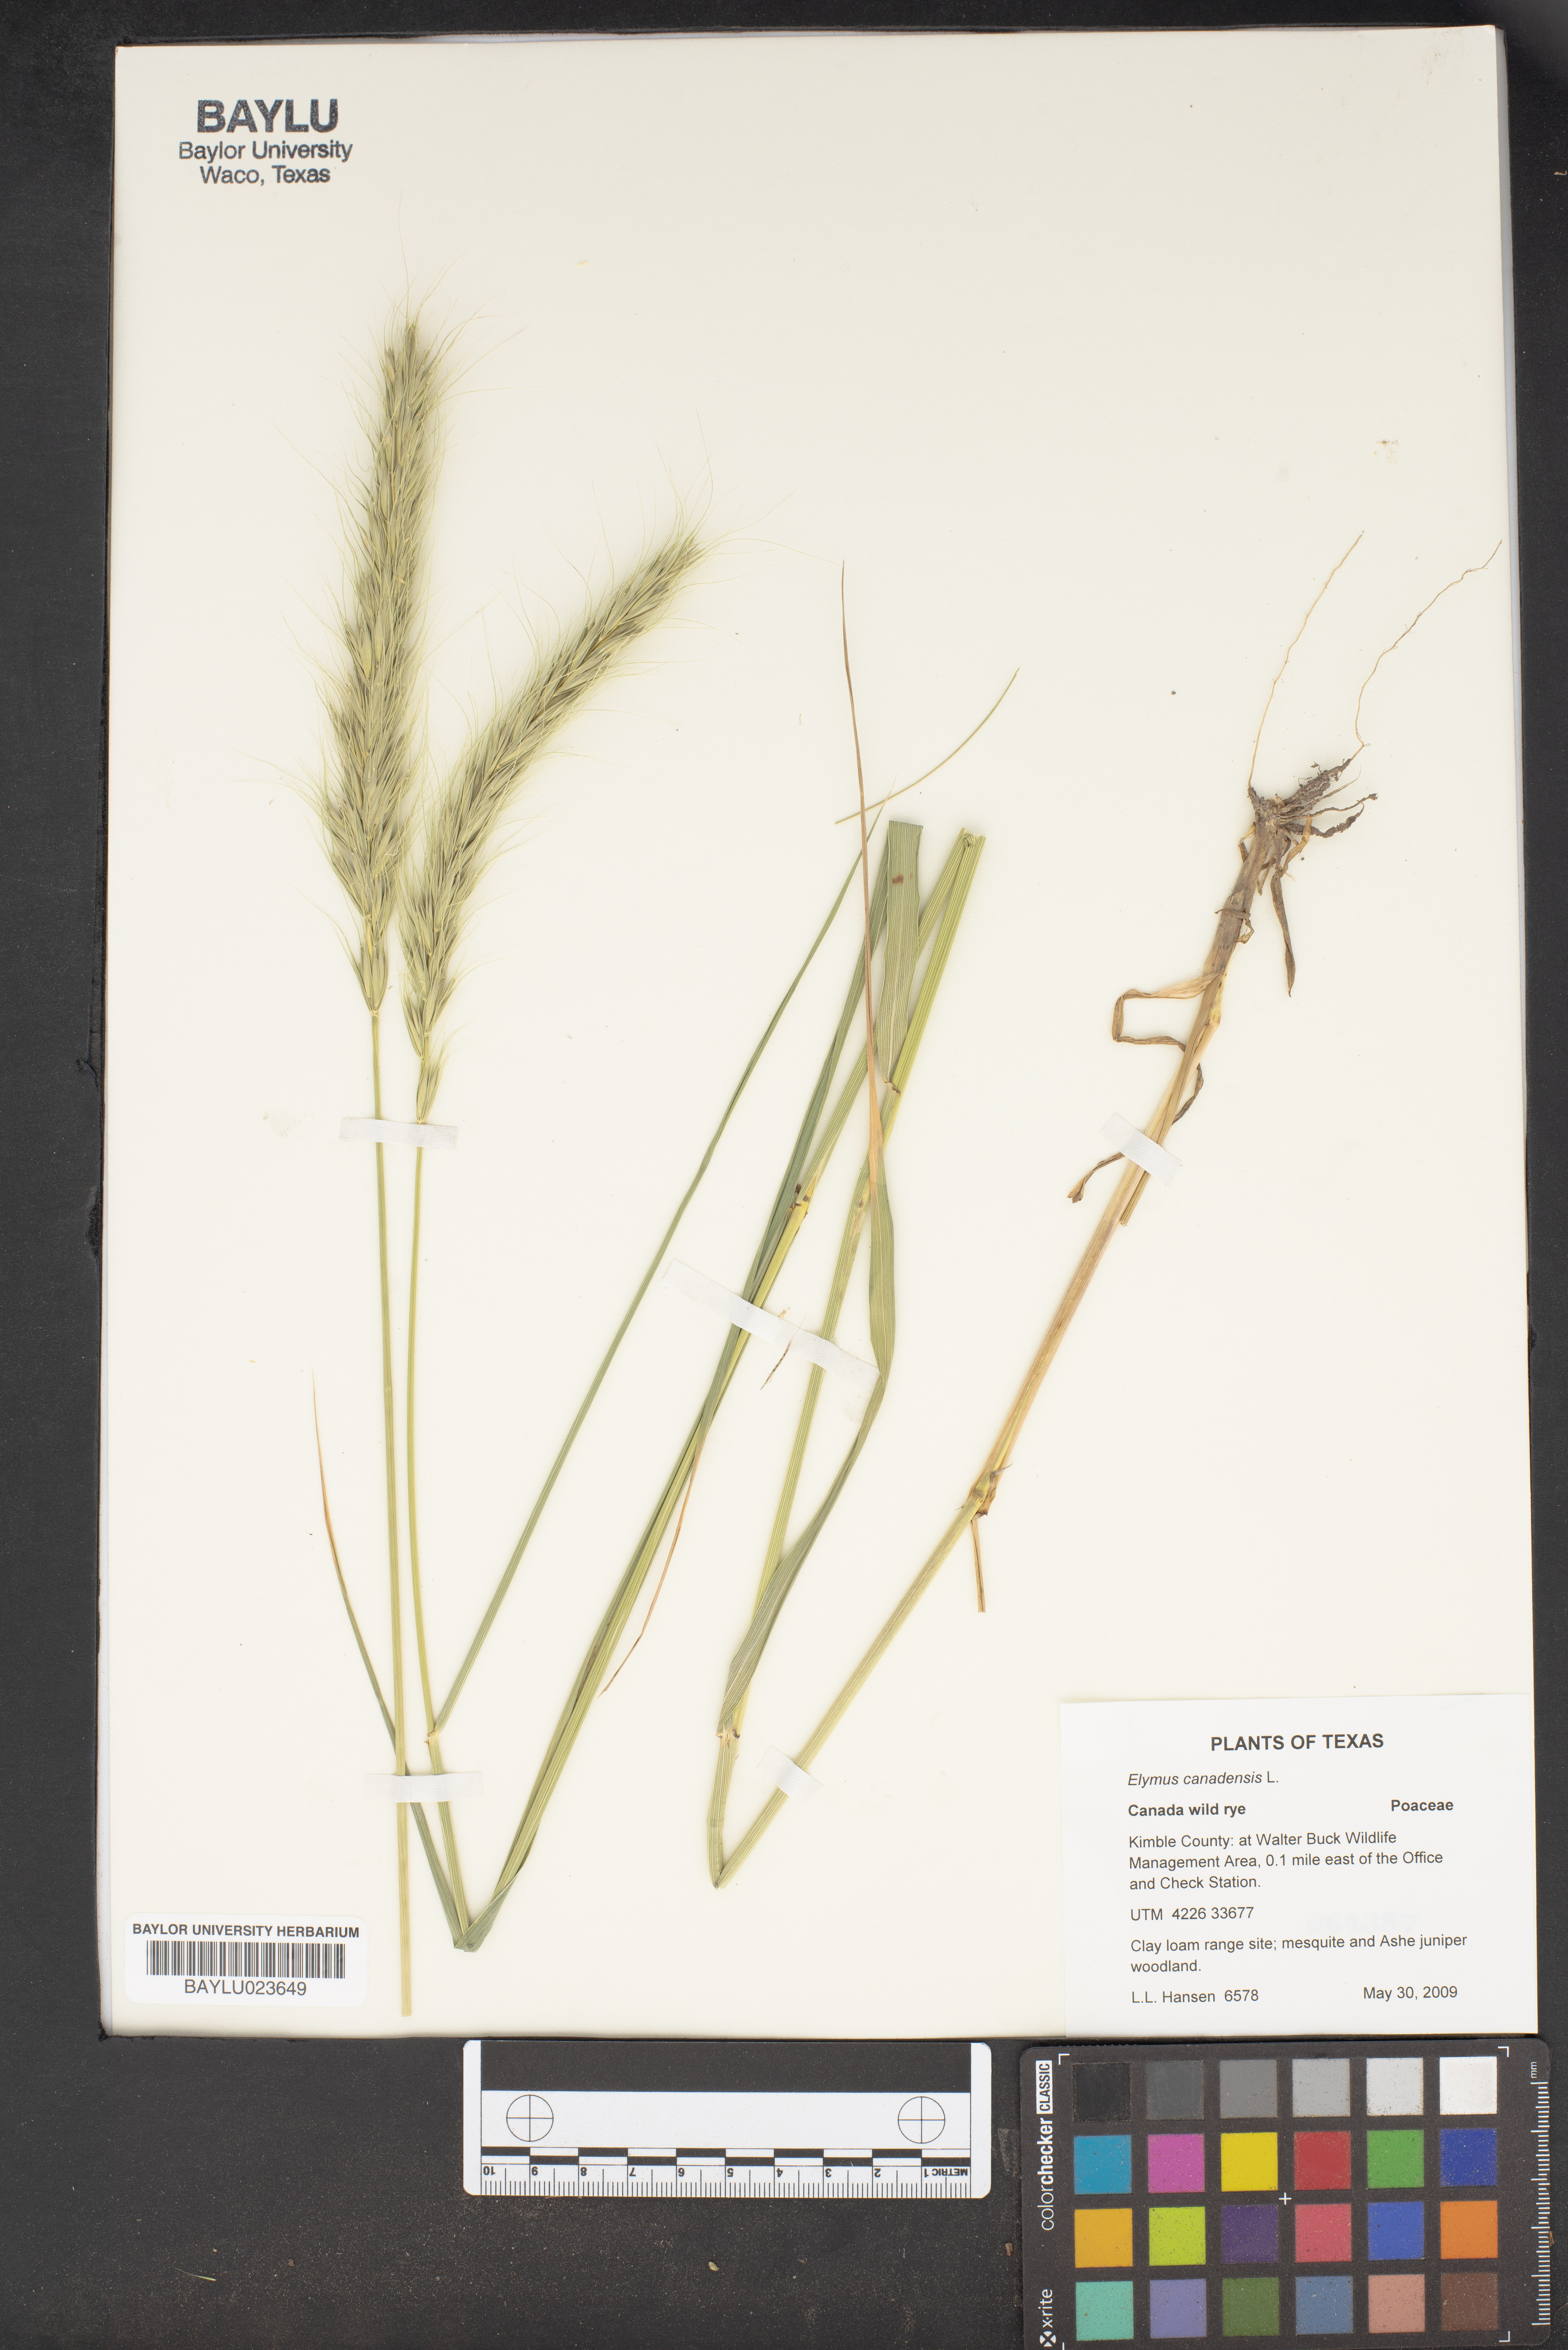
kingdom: Plantae
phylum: Tracheophyta
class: Liliopsida
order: Poales
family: Poaceae
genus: Elymus
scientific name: Elymus canadensis
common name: Canada wild rye
